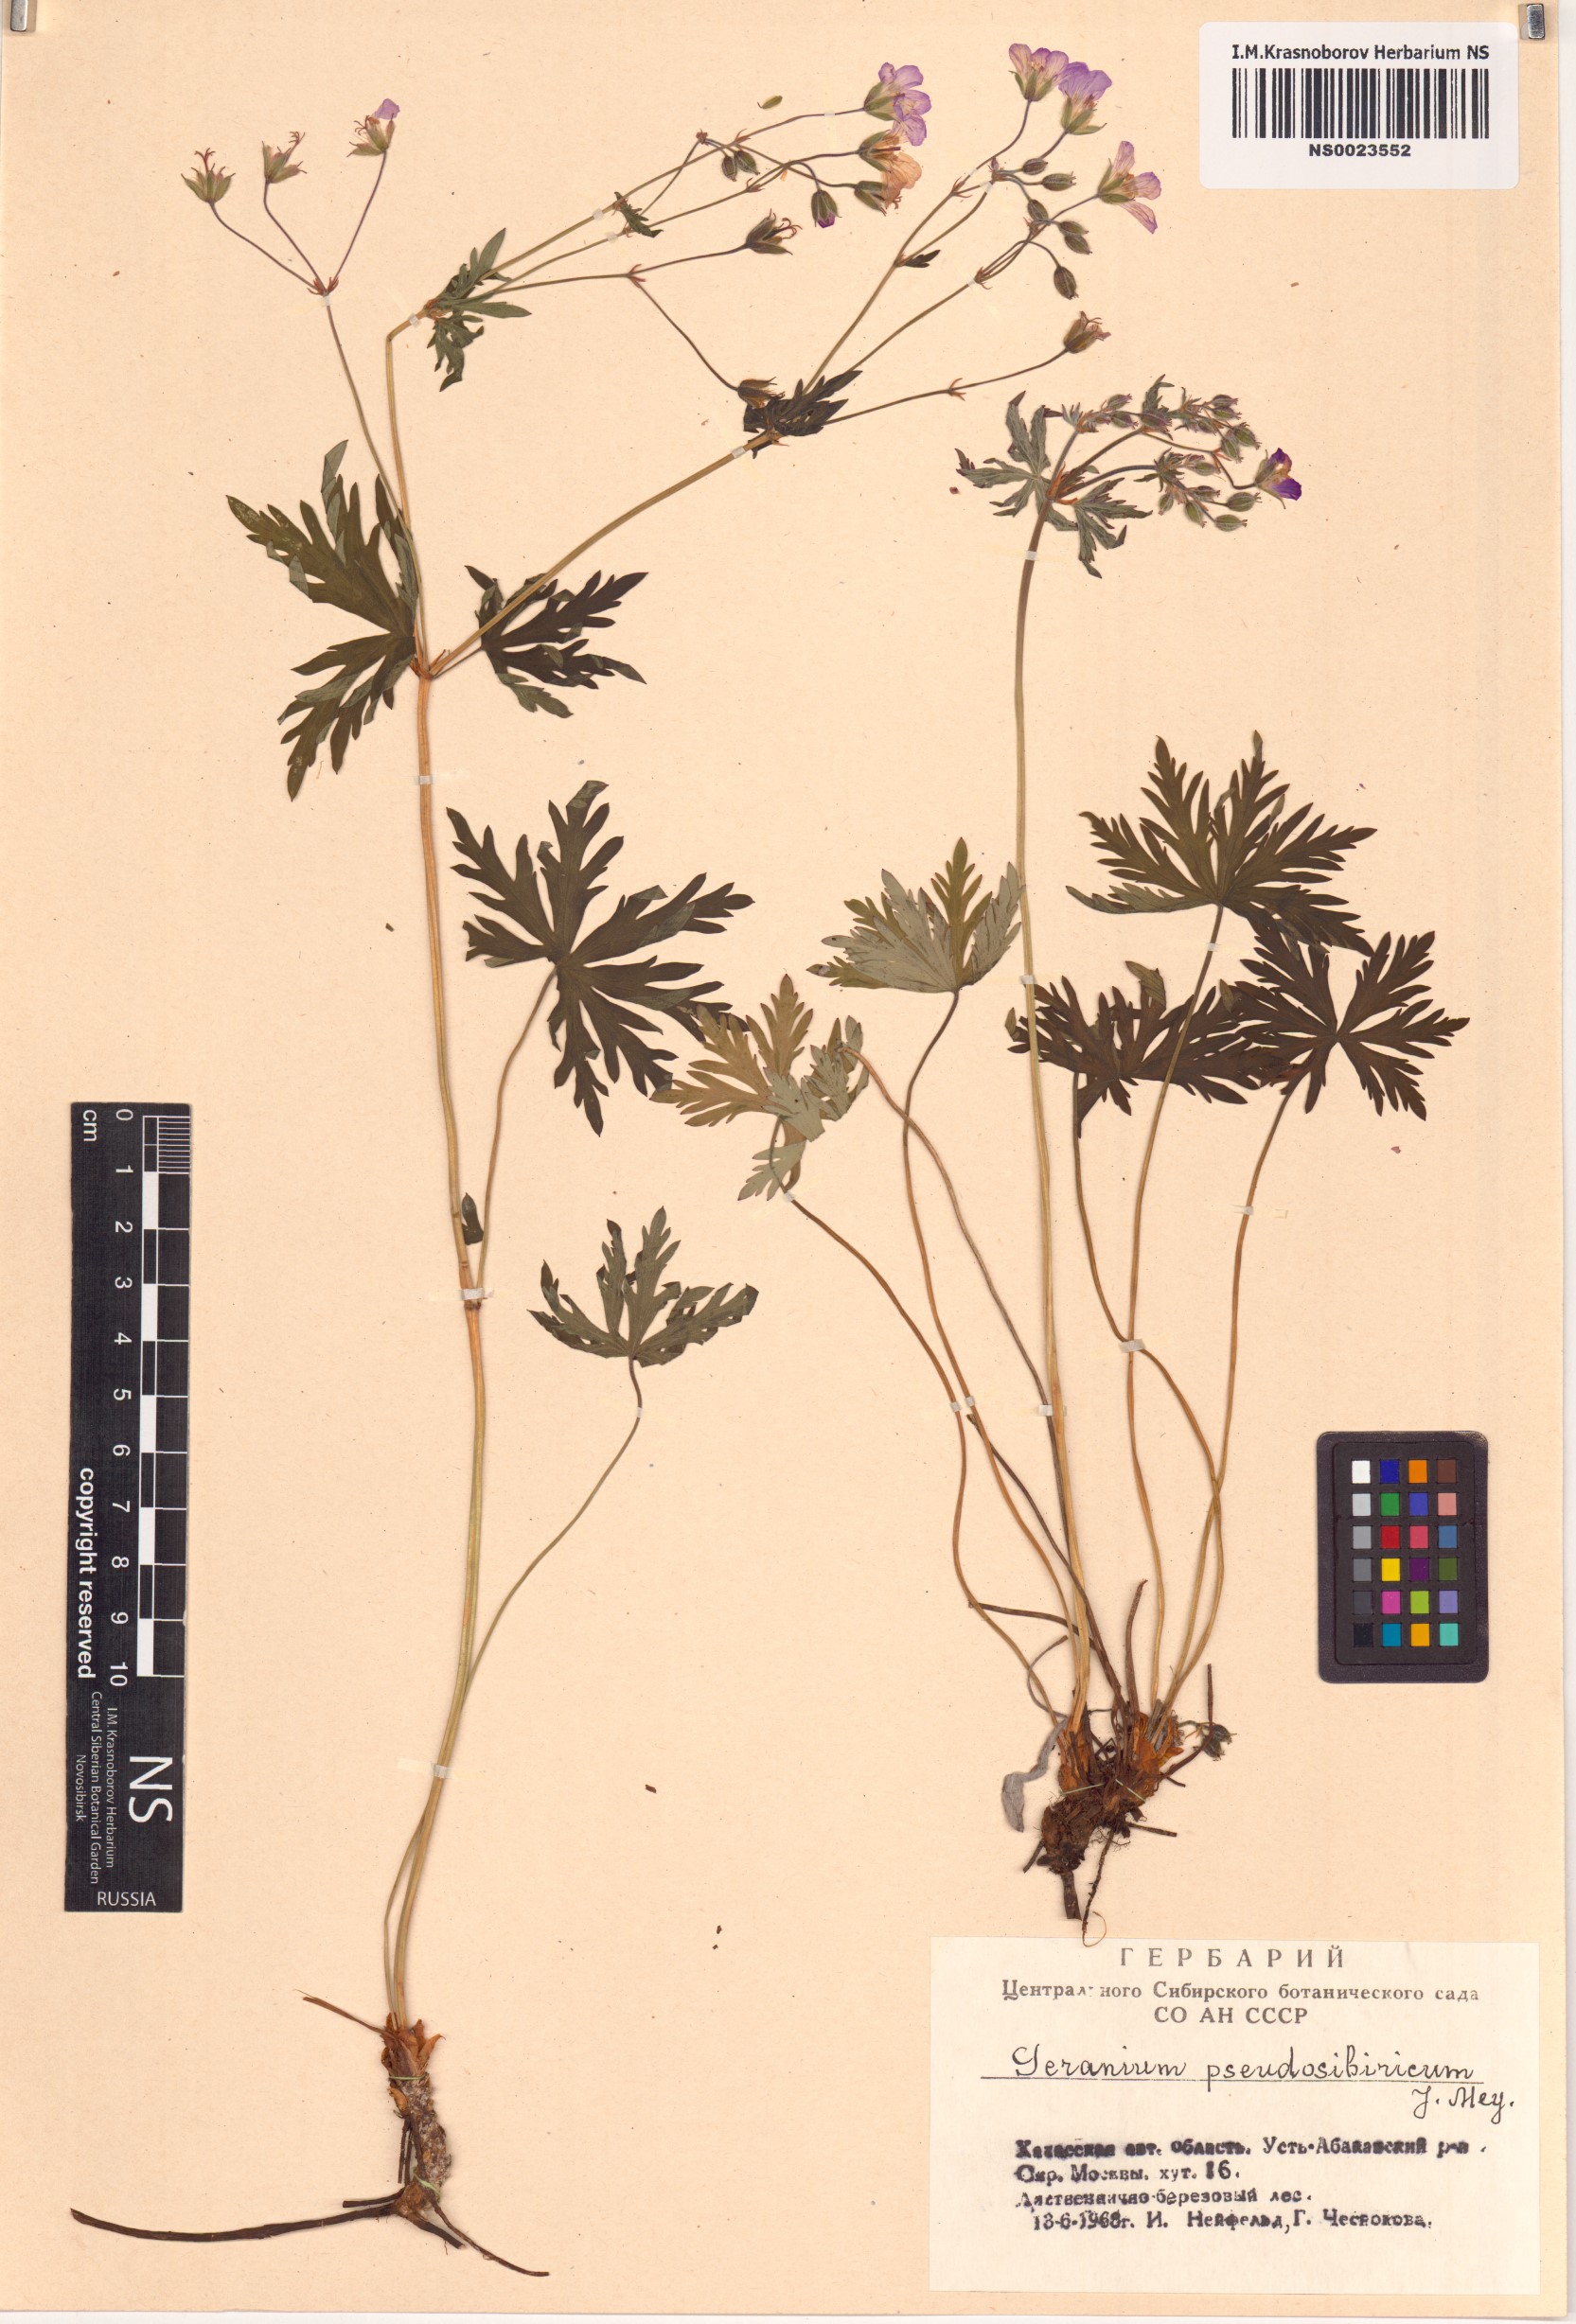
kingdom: Plantae
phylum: Tracheophyta
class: Magnoliopsida
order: Geraniales
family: Geraniaceae
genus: Geranium
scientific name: Geranium pseudosibiricum
